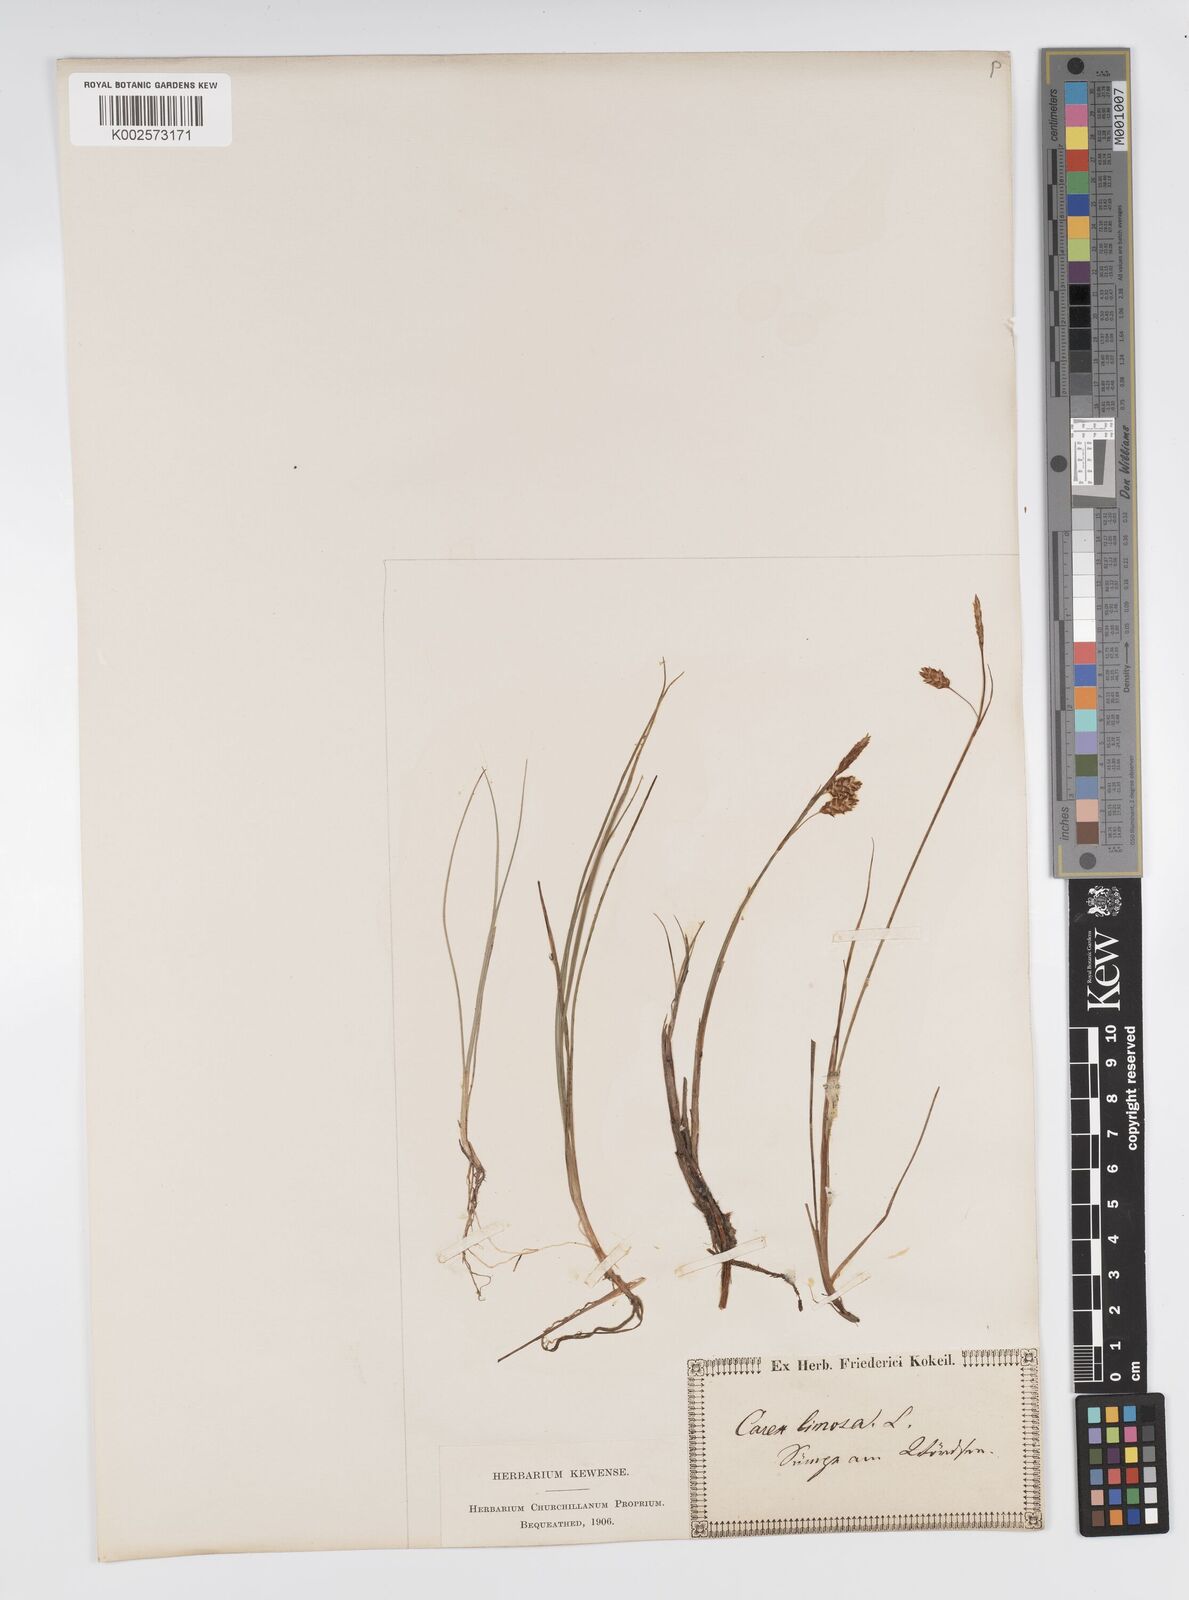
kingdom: Plantae
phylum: Tracheophyta
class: Liliopsida
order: Poales
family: Cyperaceae
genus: Carex
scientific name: Carex limosa
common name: Bog sedge
